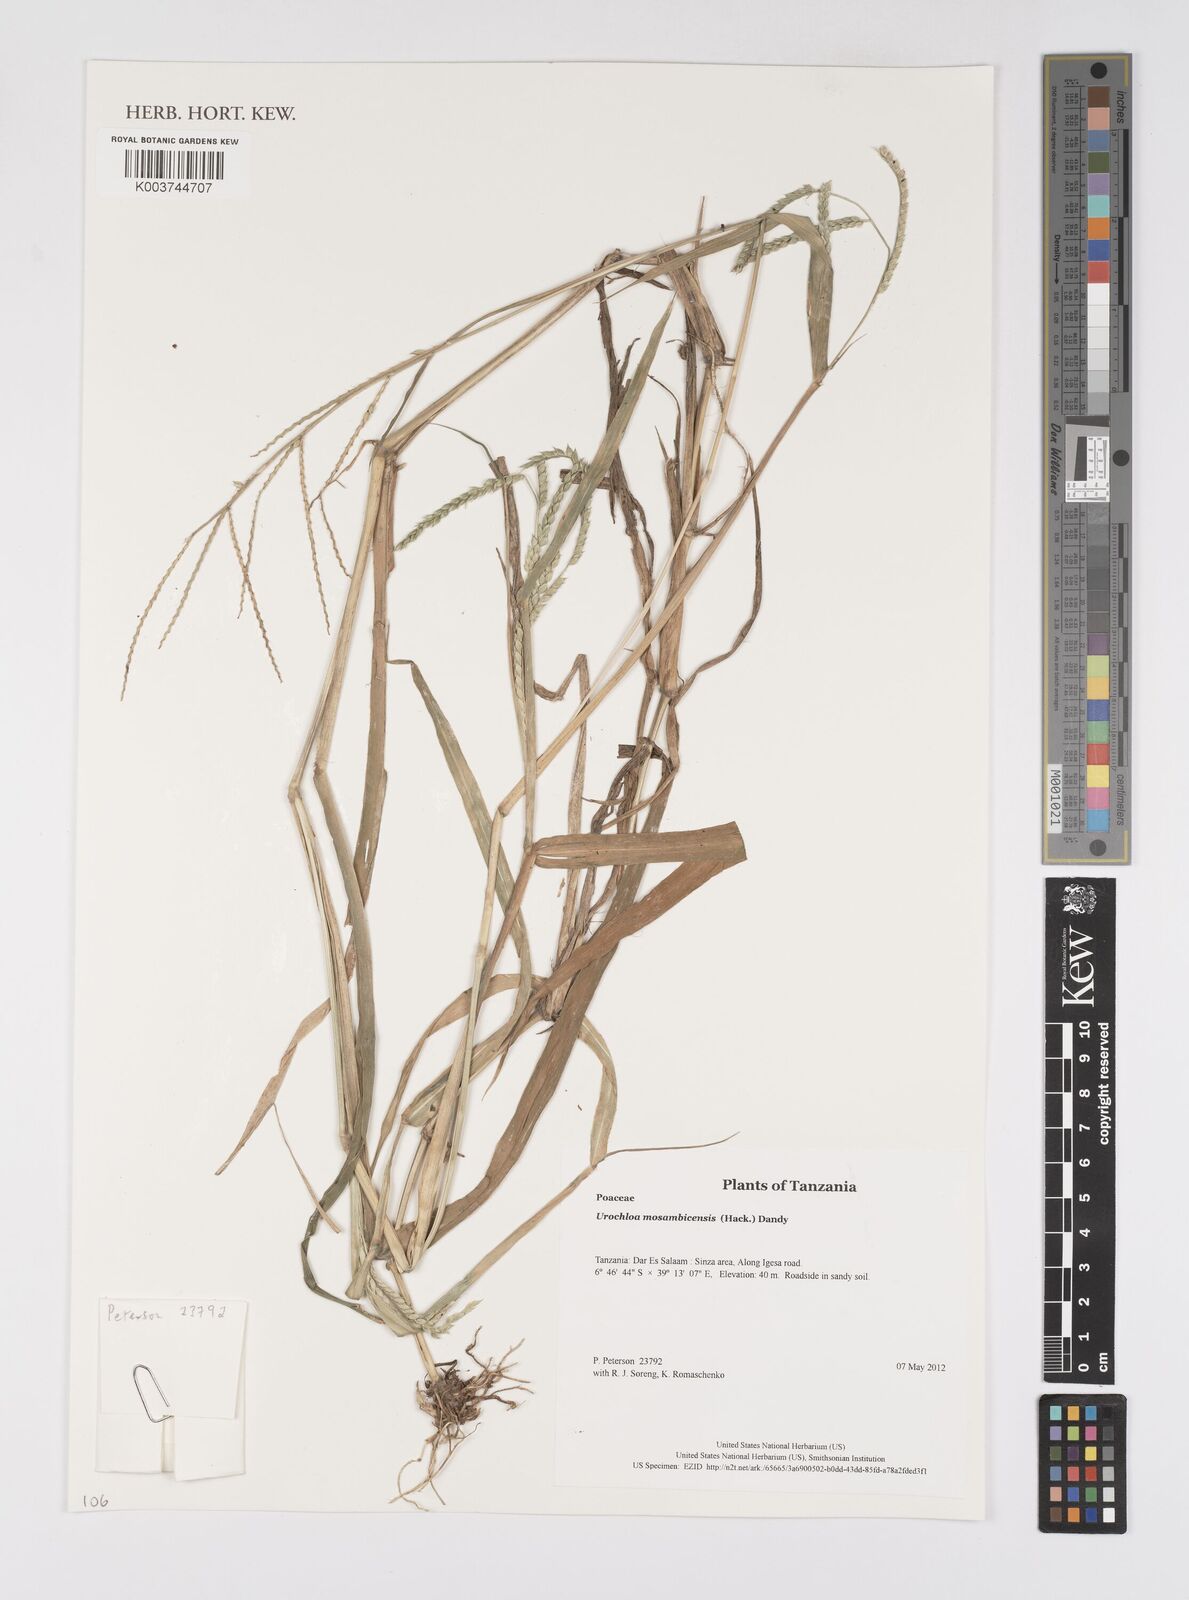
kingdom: Plantae
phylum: Tracheophyta
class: Liliopsida
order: Poales
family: Poaceae
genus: Urochloa
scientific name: Urochloa trichopus
